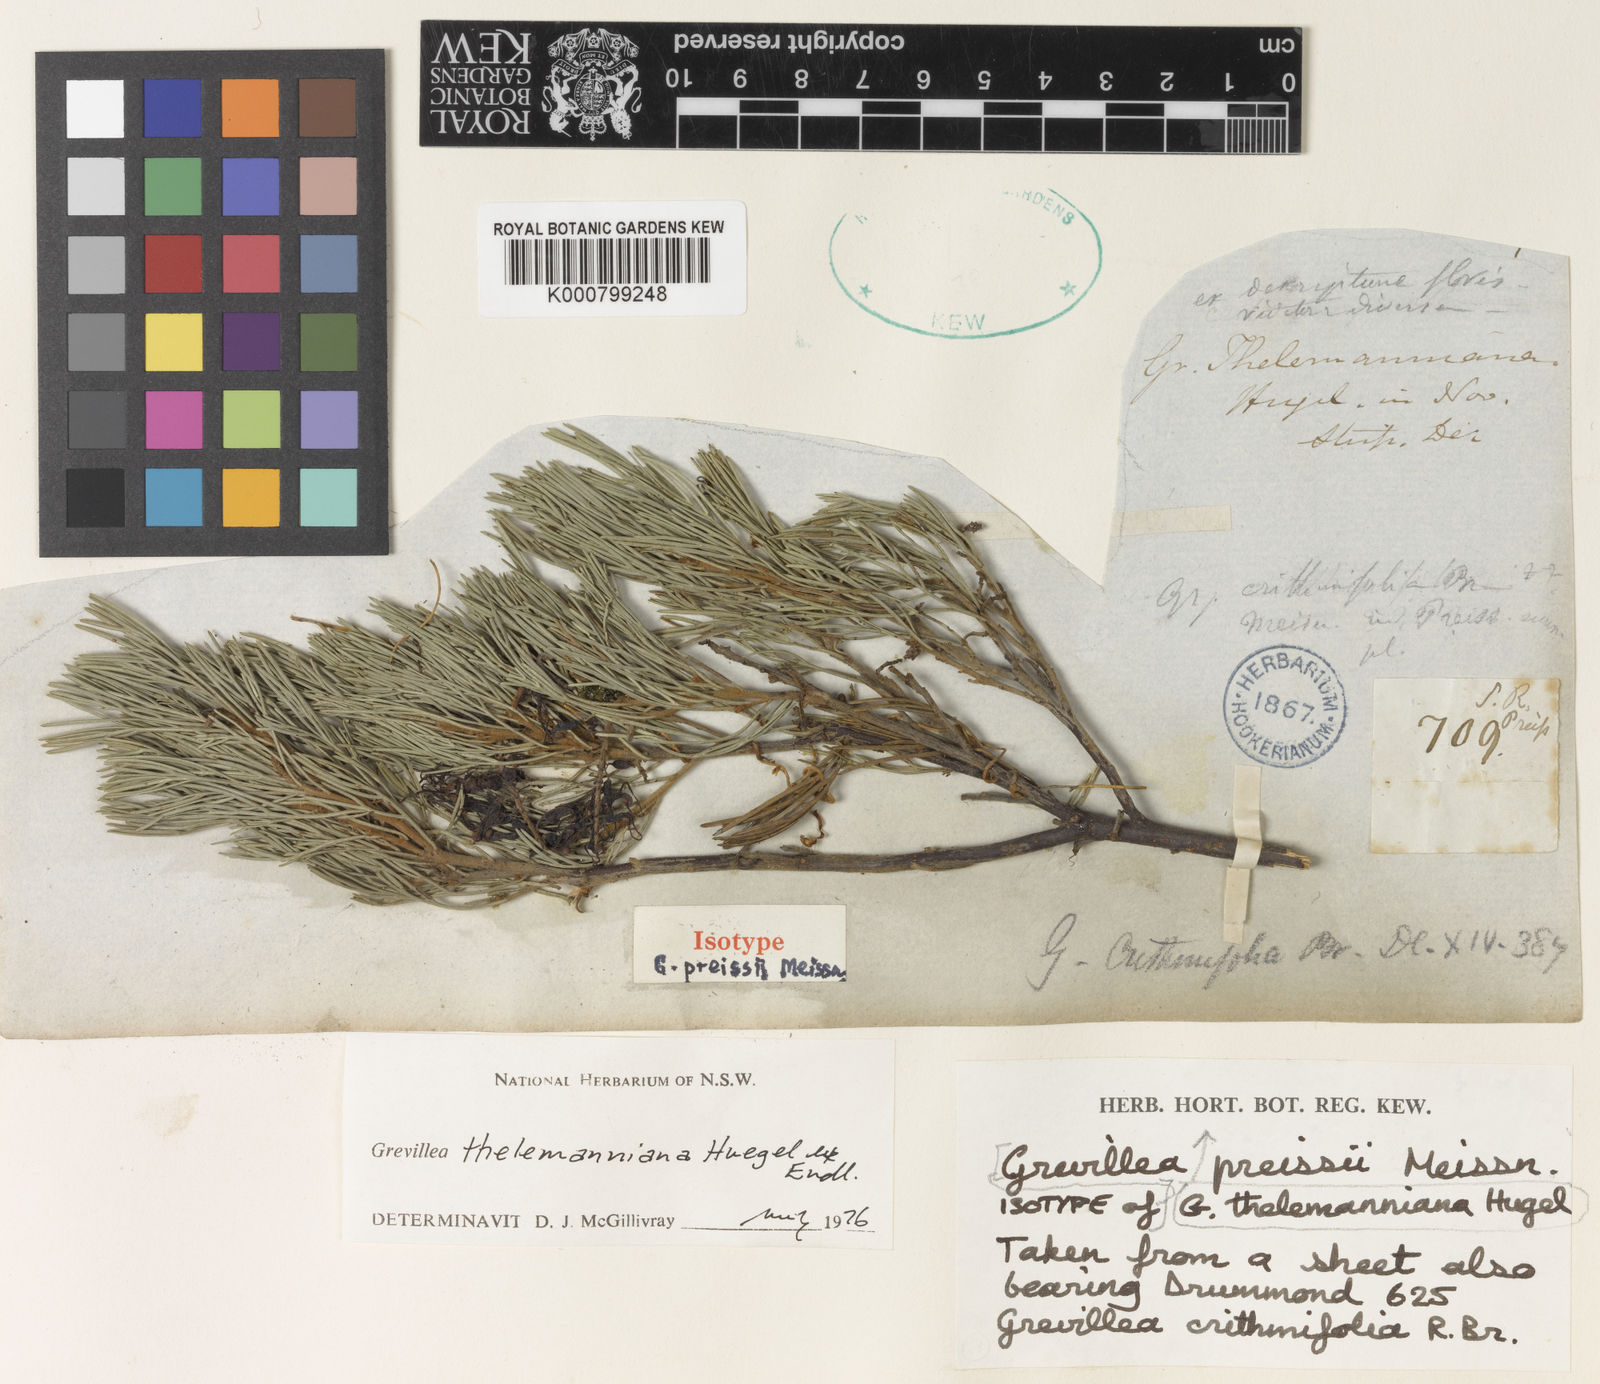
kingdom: Plantae
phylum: Tracheophyta
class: Magnoliopsida
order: Proteales
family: Proteaceae
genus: Grevillea
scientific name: Grevillea
